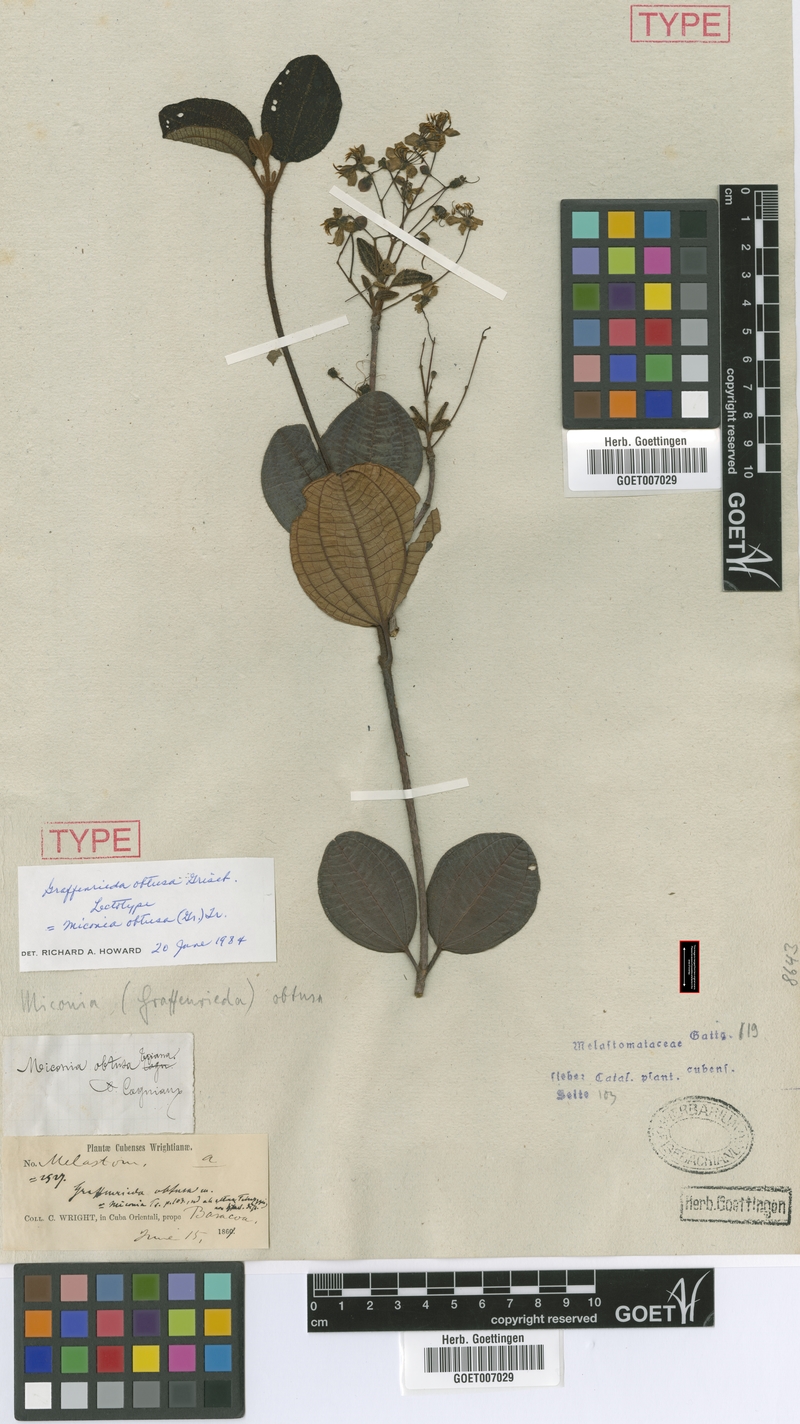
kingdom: Plantae
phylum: Tracheophyta
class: Magnoliopsida
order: Myrtales
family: Melastomataceae
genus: Miconia
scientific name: Miconia obtusa
